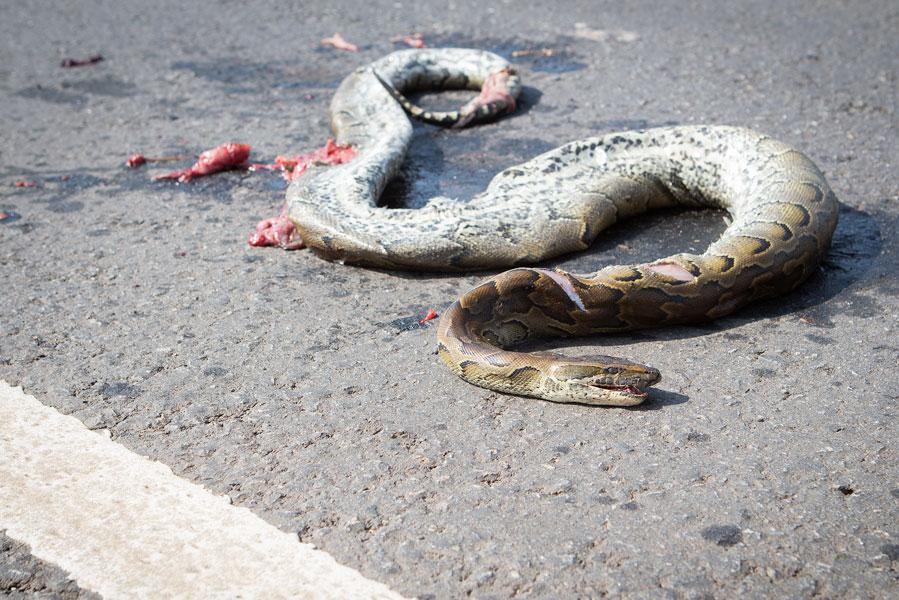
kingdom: Animalia
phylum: Chordata
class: Squamata
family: Pythonidae
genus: Python
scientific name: Python sebae
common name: African rock python
